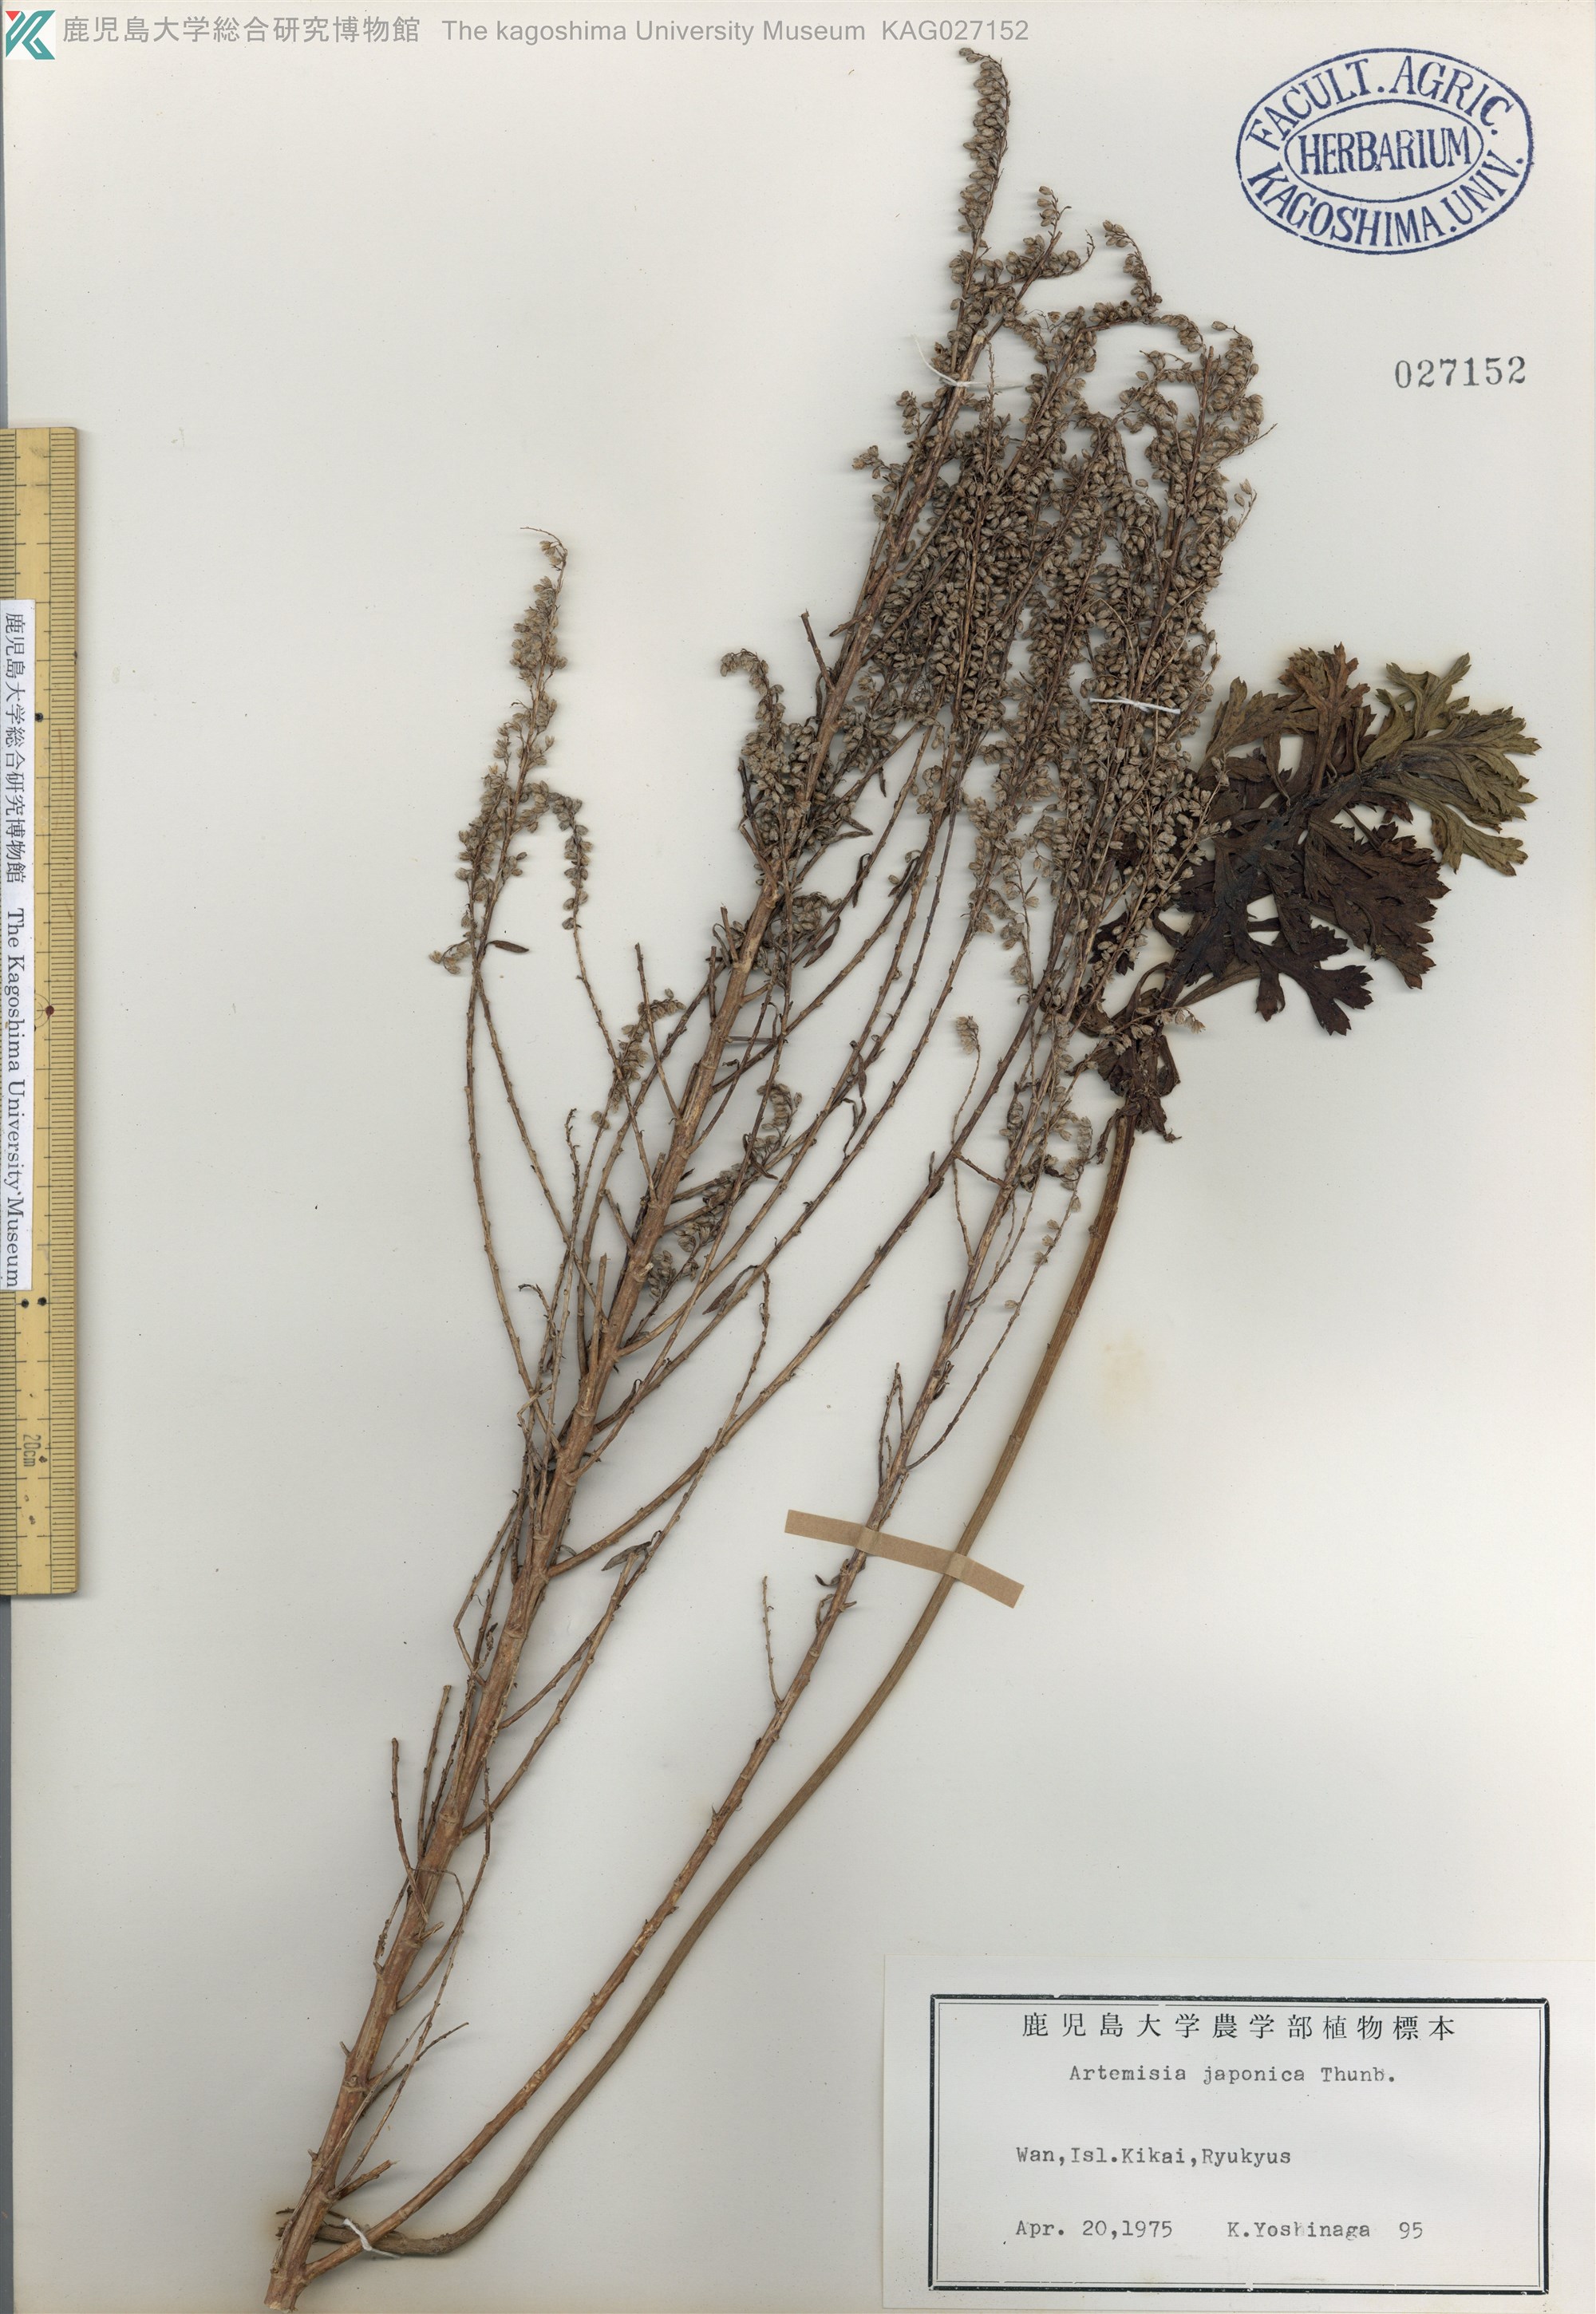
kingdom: Plantae
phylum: Tracheophyta
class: Magnoliopsida
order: Asterales
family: Asteraceae
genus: Artemisia
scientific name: Artemisia japonica
